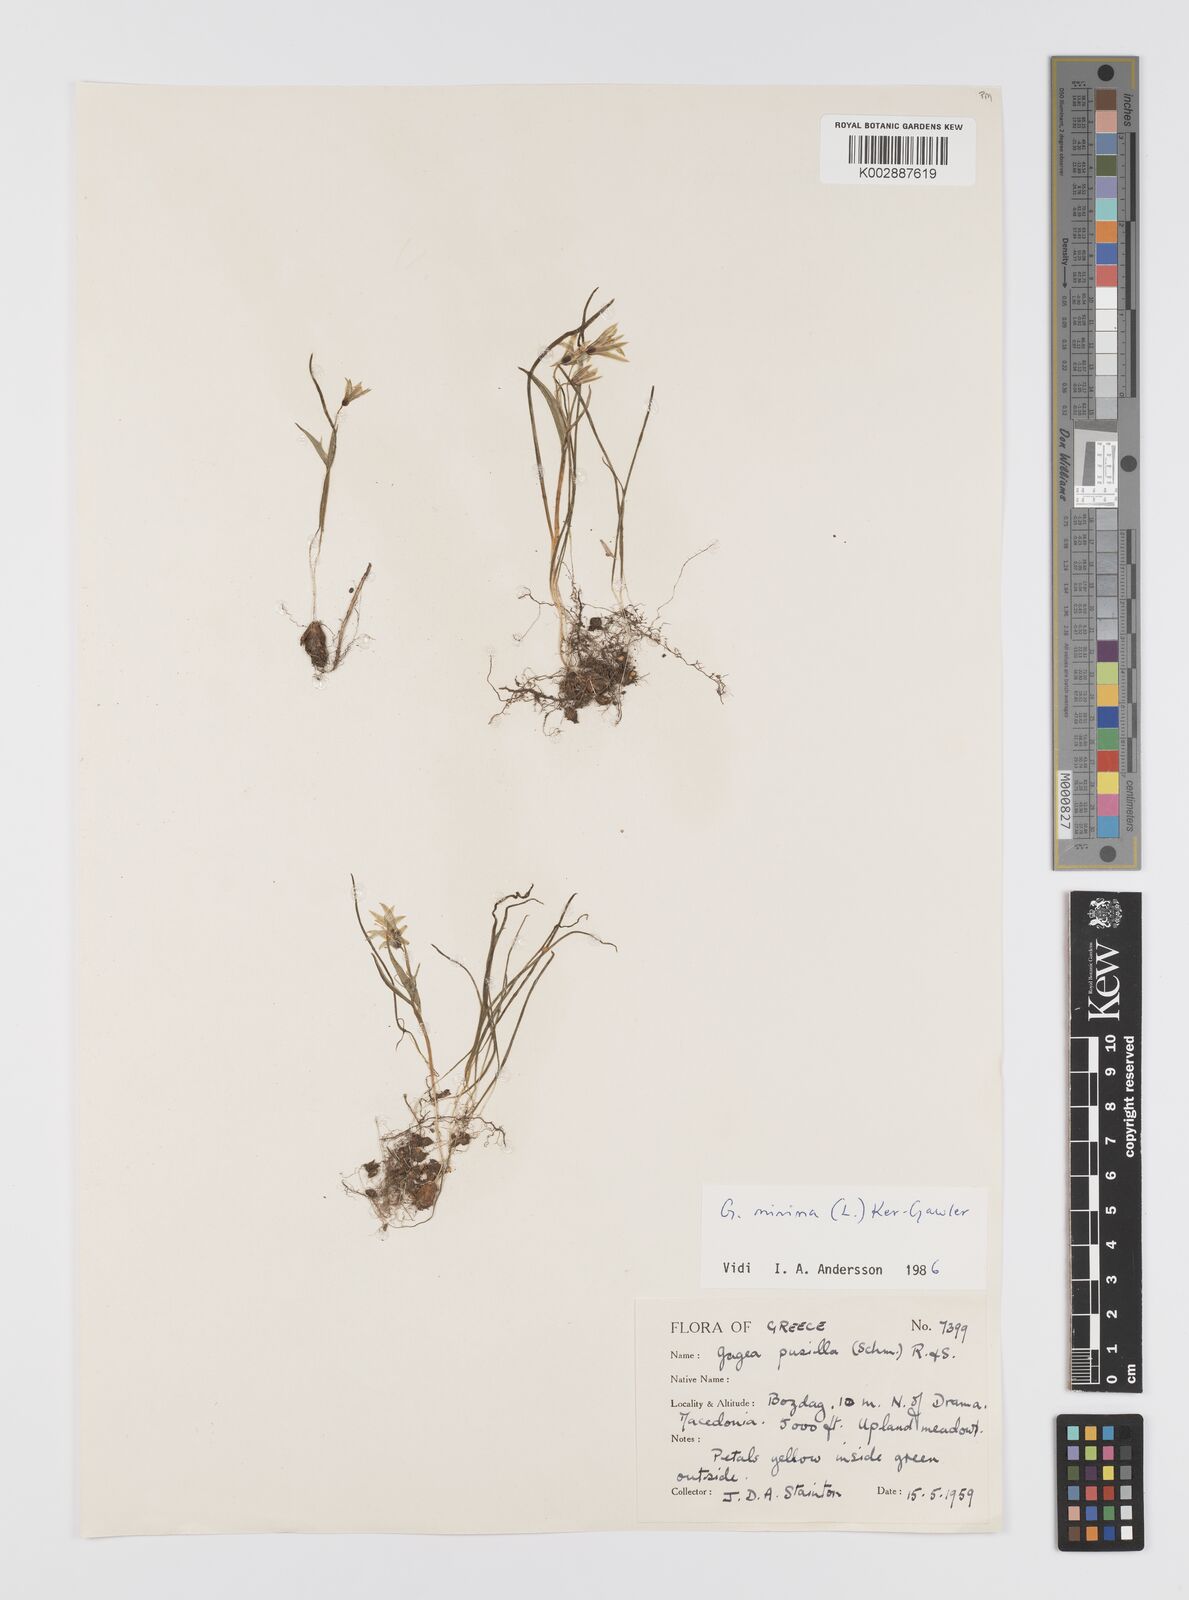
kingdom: Plantae
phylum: Tracheophyta
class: Liliopsida
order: Liliales
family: Liliaceae
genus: Gagea
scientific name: Gagea pusilla
